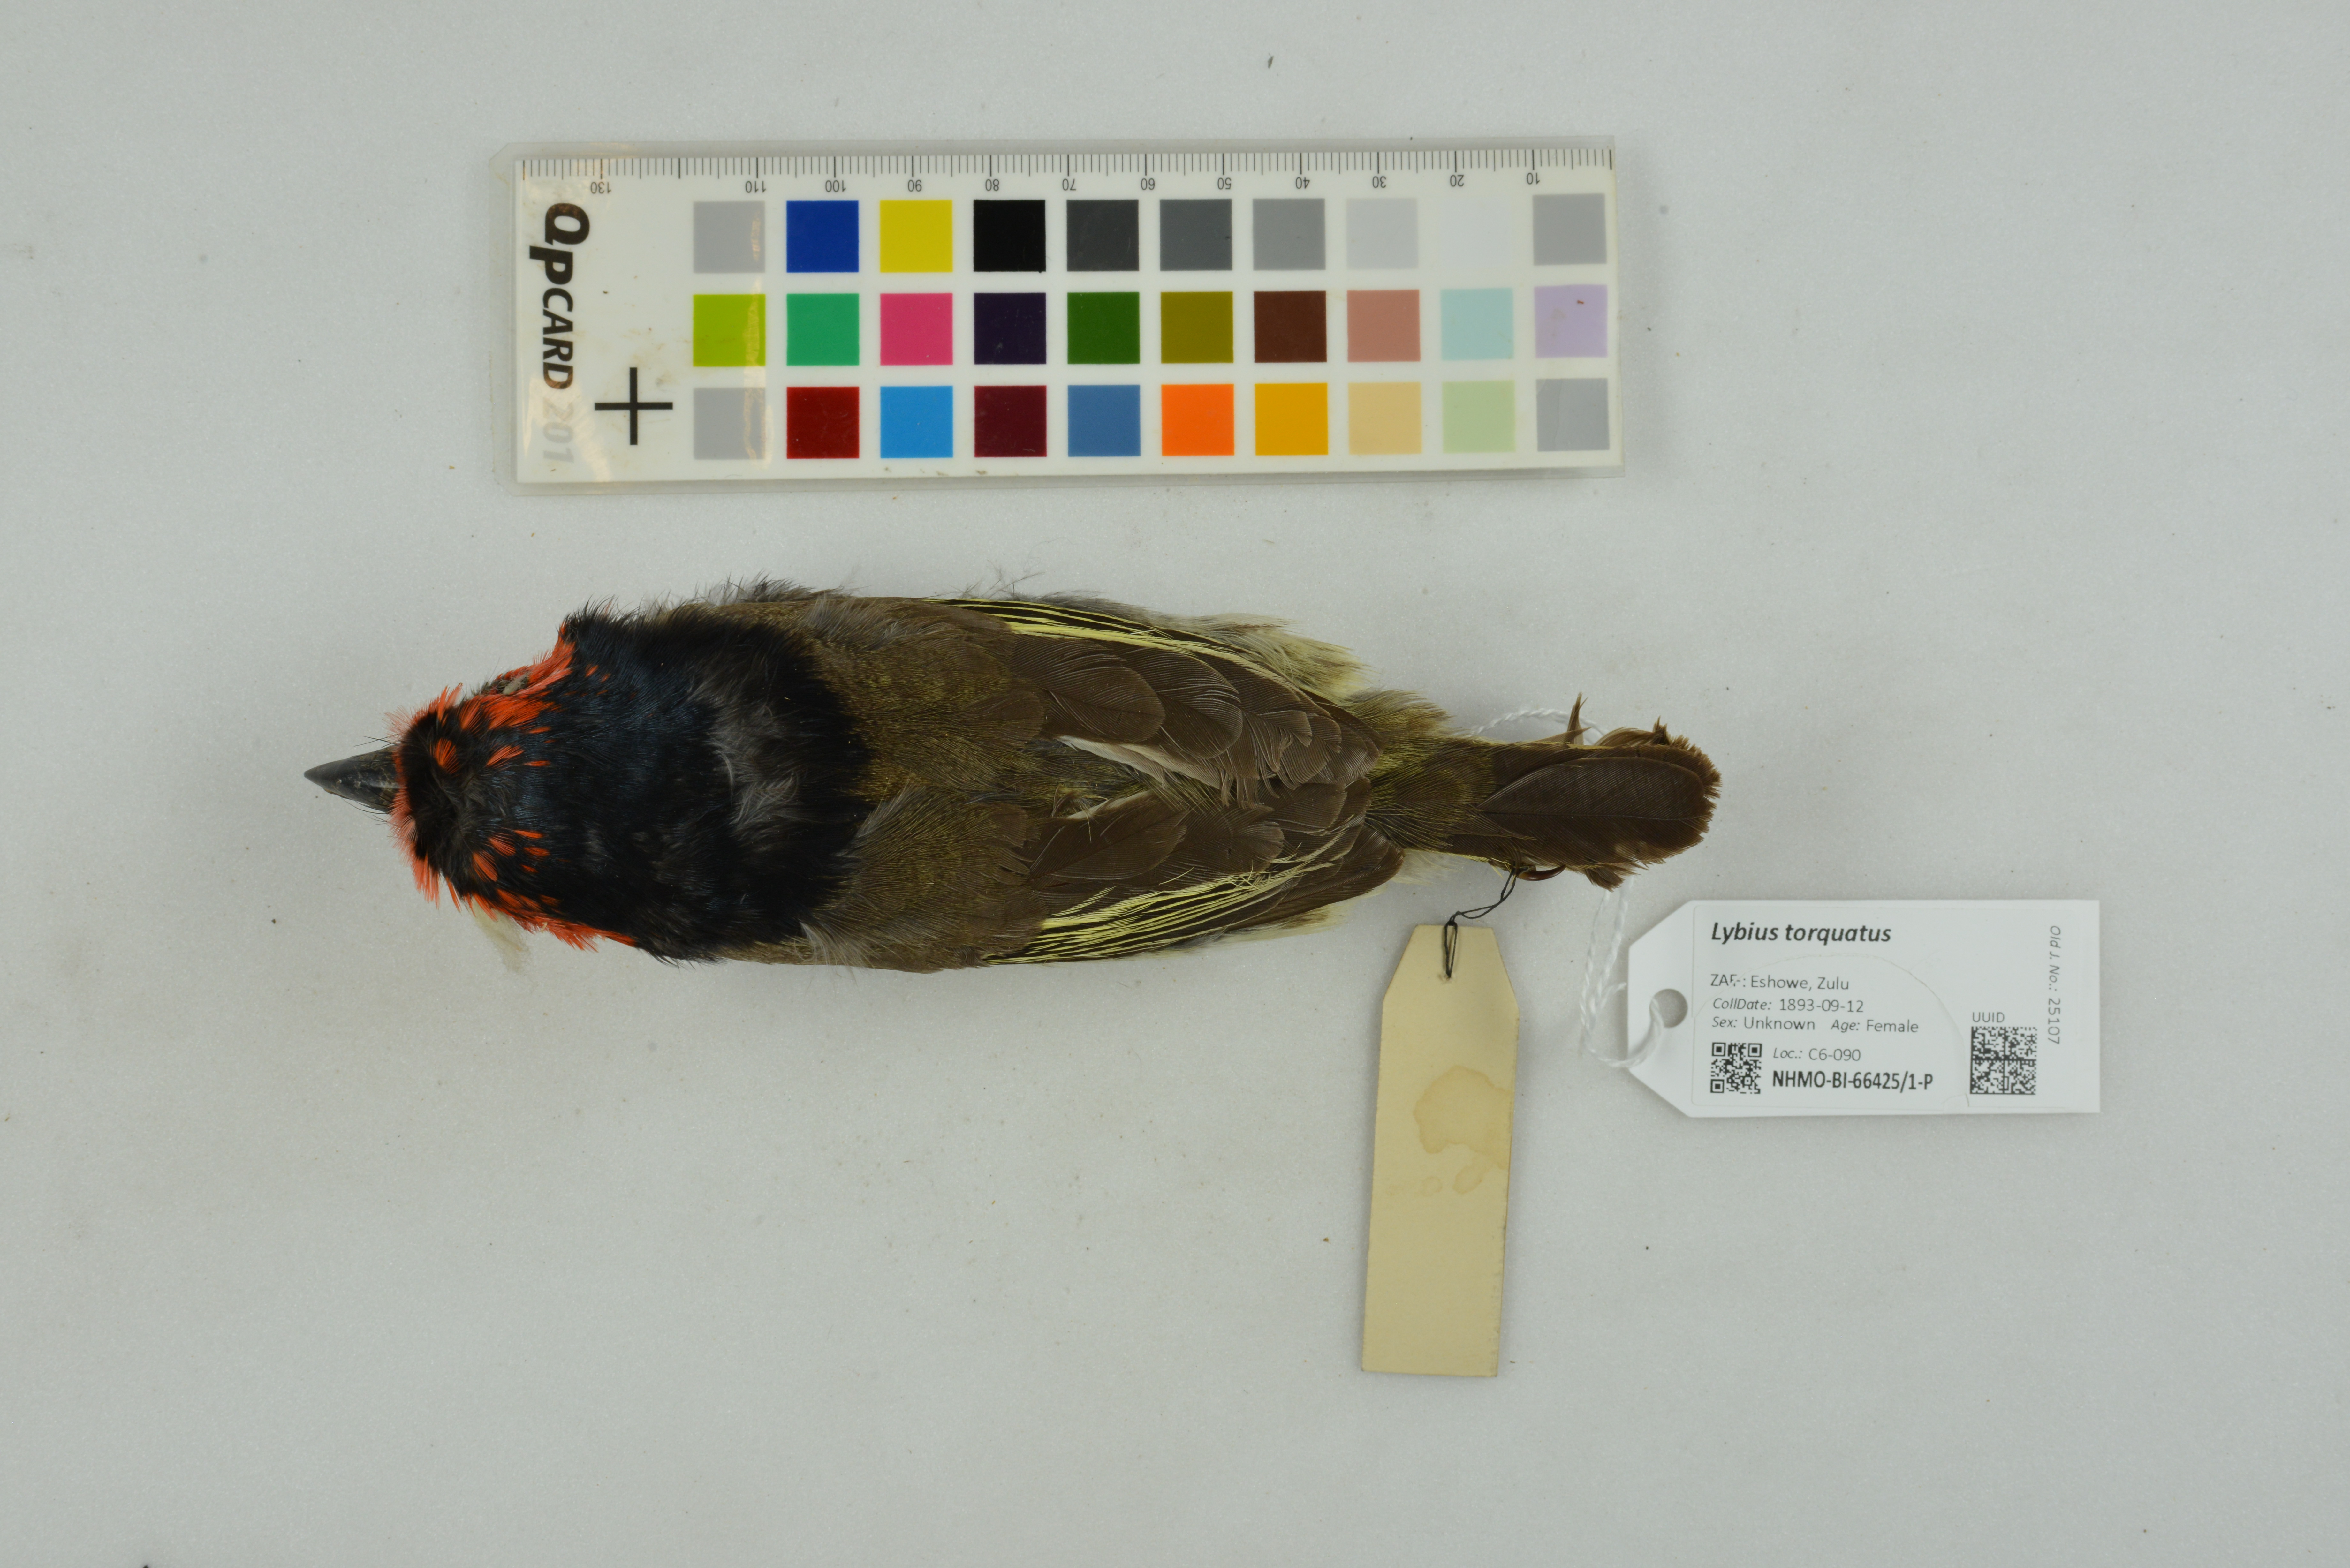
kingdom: Animalia
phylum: Chordata
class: Aves
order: Piciformes
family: Lybiidae
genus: Lybius
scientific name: Lybius torquatus
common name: Black-collared barbet
